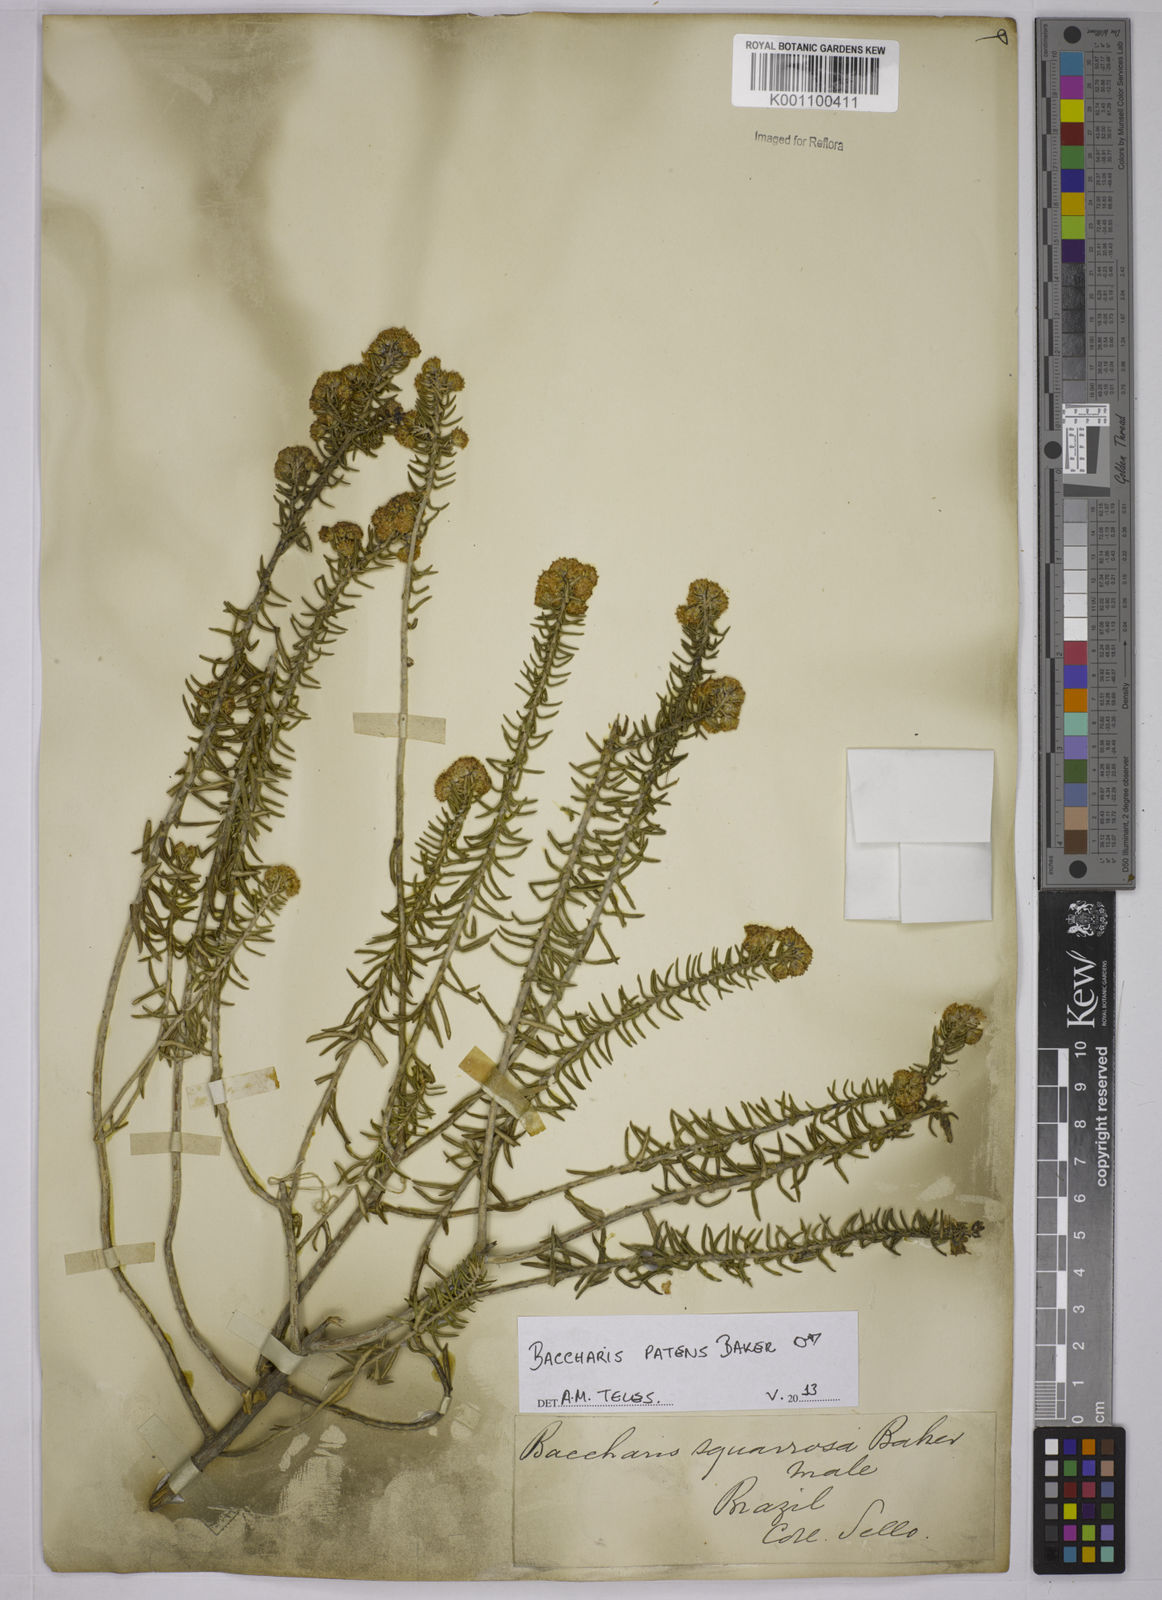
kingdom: Plantae
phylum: Tracheophyta
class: Magnoliopsida
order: Asterales
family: Asteraceae
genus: Baccharis
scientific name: Baccharis squarrosa
